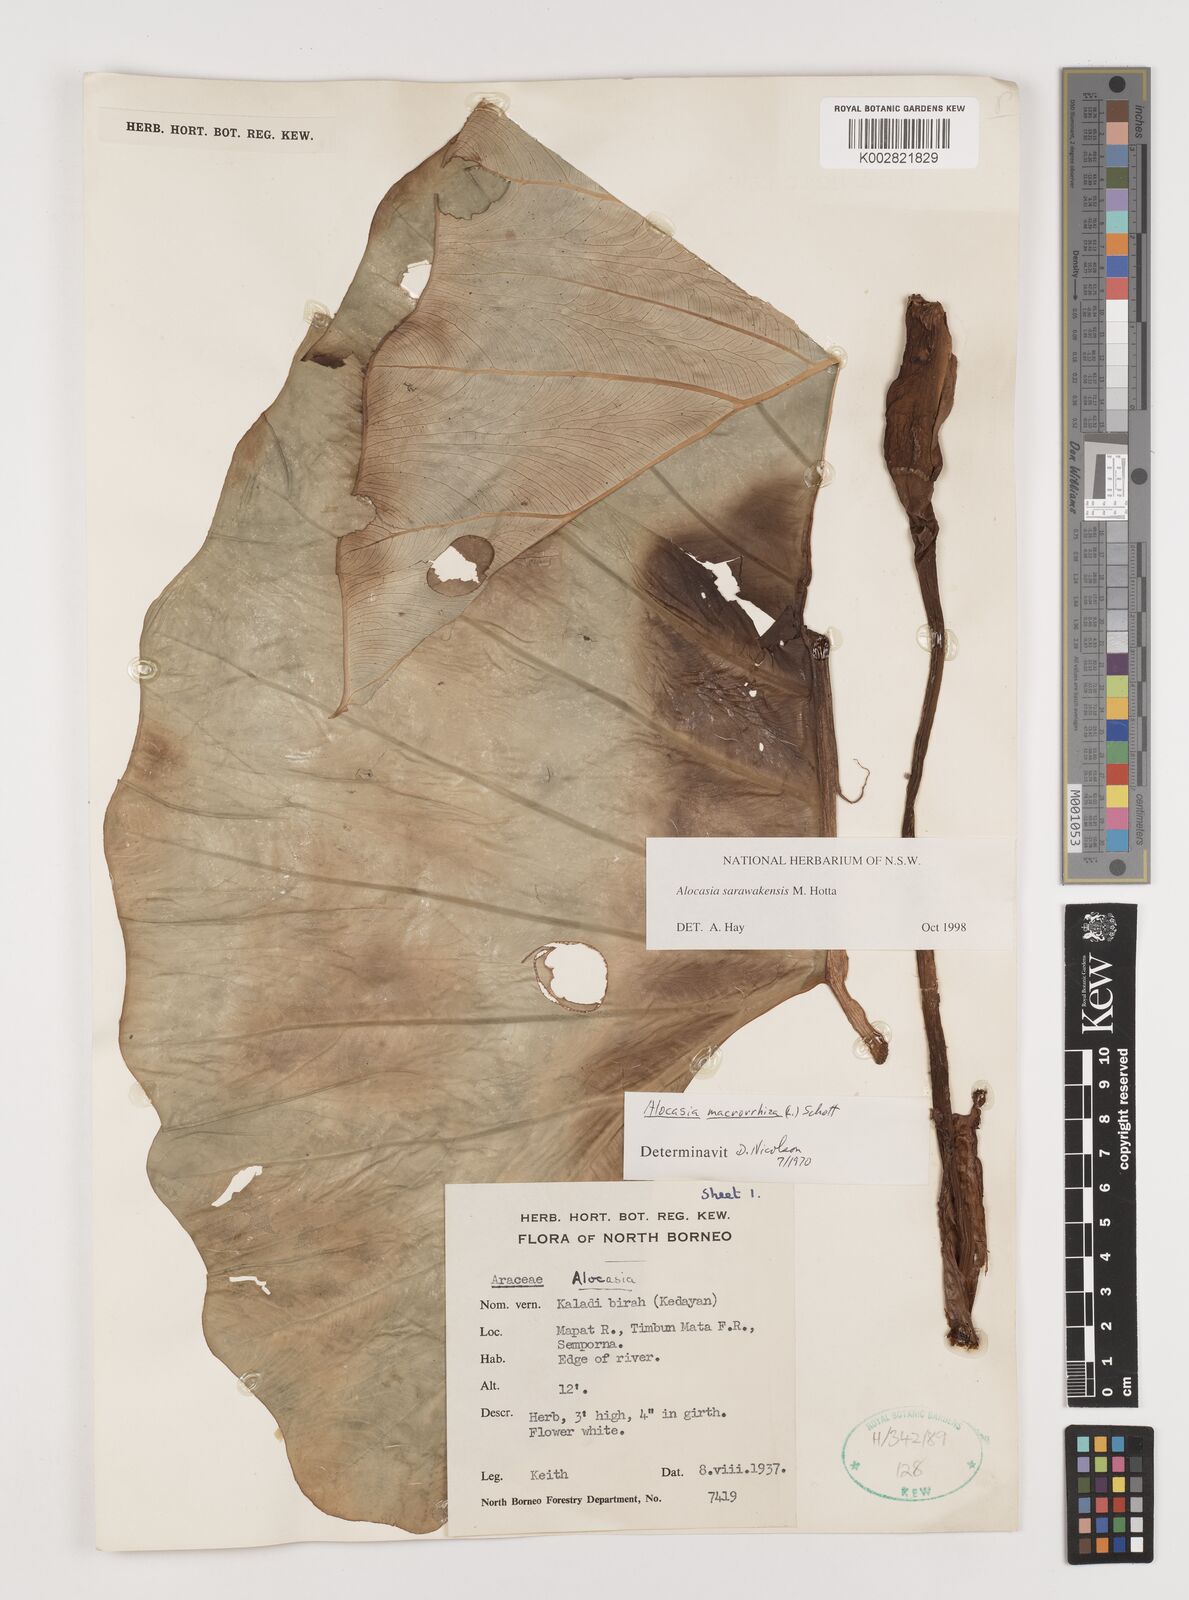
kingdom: Plantae
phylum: Tracheophyta
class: Liliopsida
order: Alismatales
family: Araceae
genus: Alocasia
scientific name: Alocasia sarawakensis
